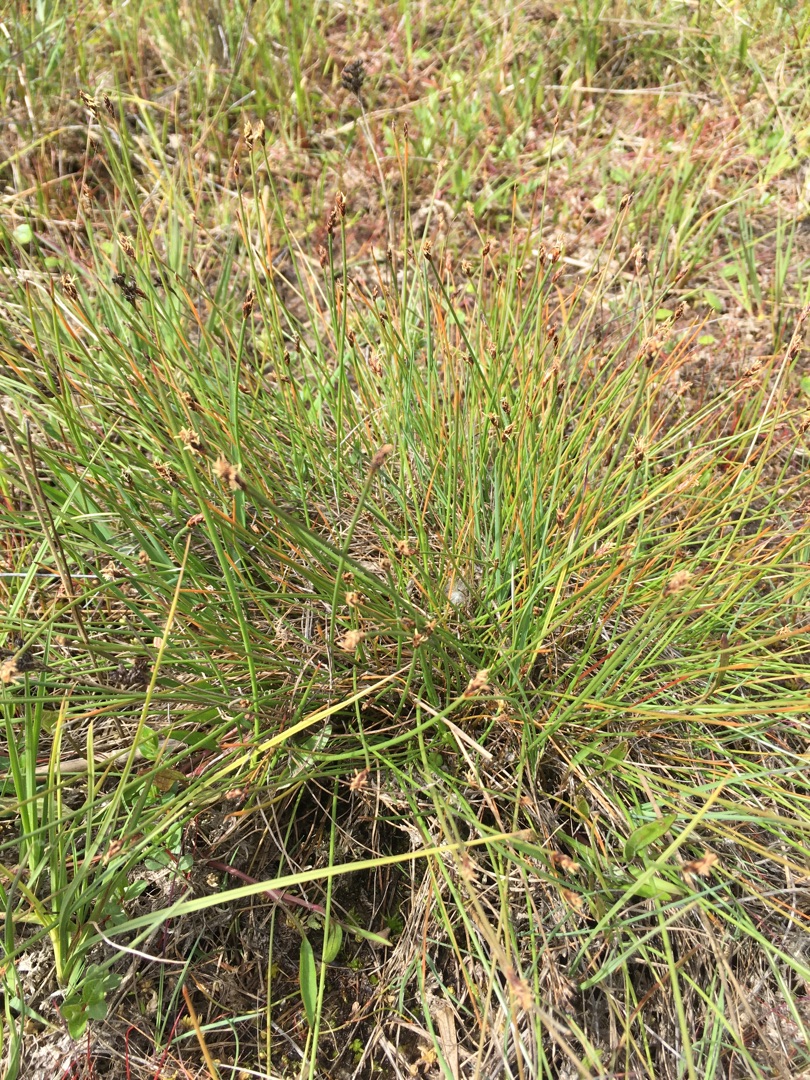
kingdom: Plantae
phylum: Tracheophyta
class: Liliopsida
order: Poales
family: Cyperaceae
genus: Eleocharis
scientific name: Eleocharis multicaulis
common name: Mangestænglet sumpstrå
